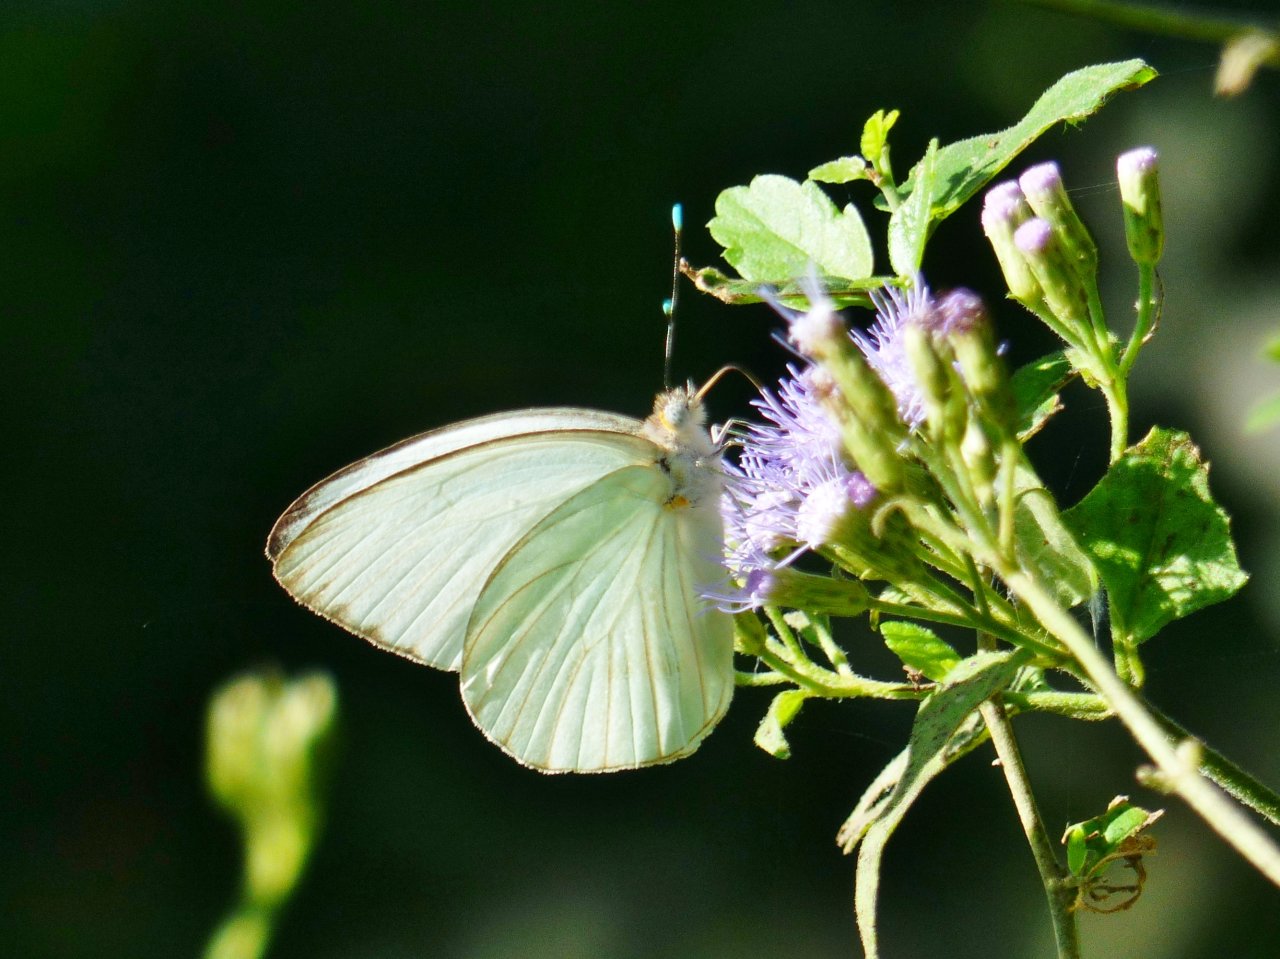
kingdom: Animalia
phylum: Arthropoda
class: Insecta
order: Lepidoptera
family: Pieridae
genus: Ascia
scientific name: Ascia monuste
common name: Great Southern White
